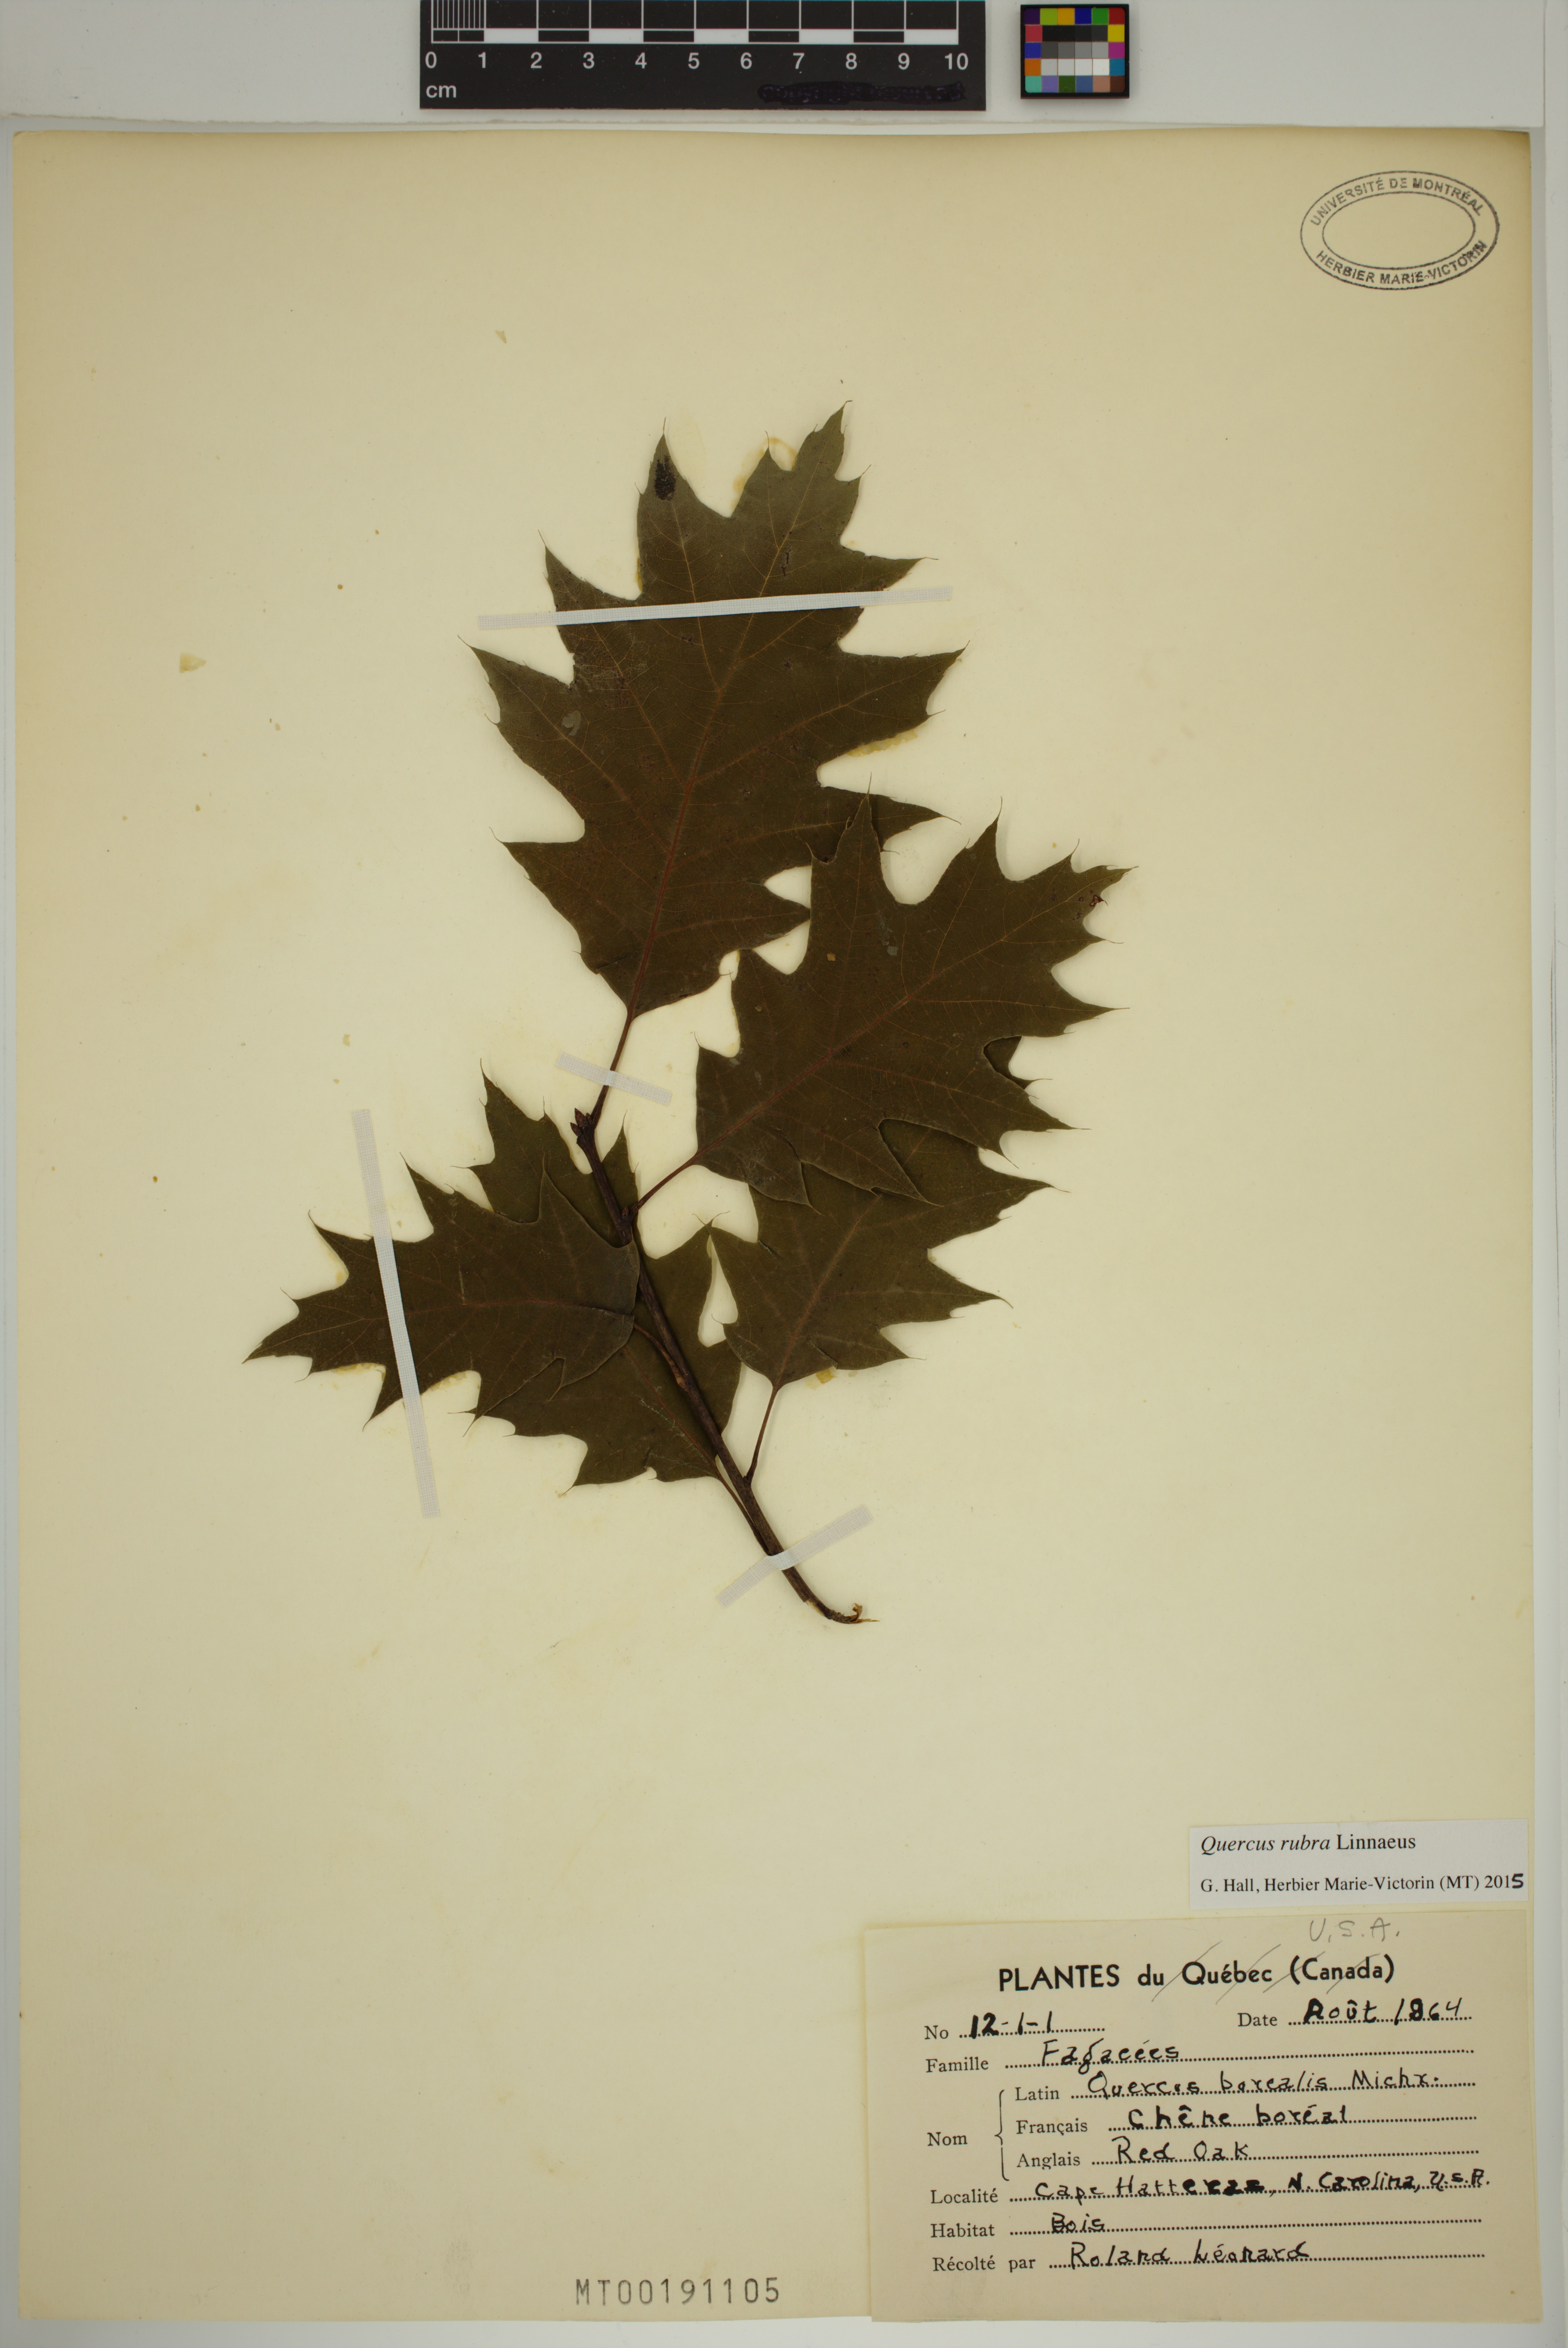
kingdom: Plantae
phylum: Tracheophyta
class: Magnoliopsida
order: Fagales
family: Fagaceae
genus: Quercus
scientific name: Quercus rubra
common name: Red oak
